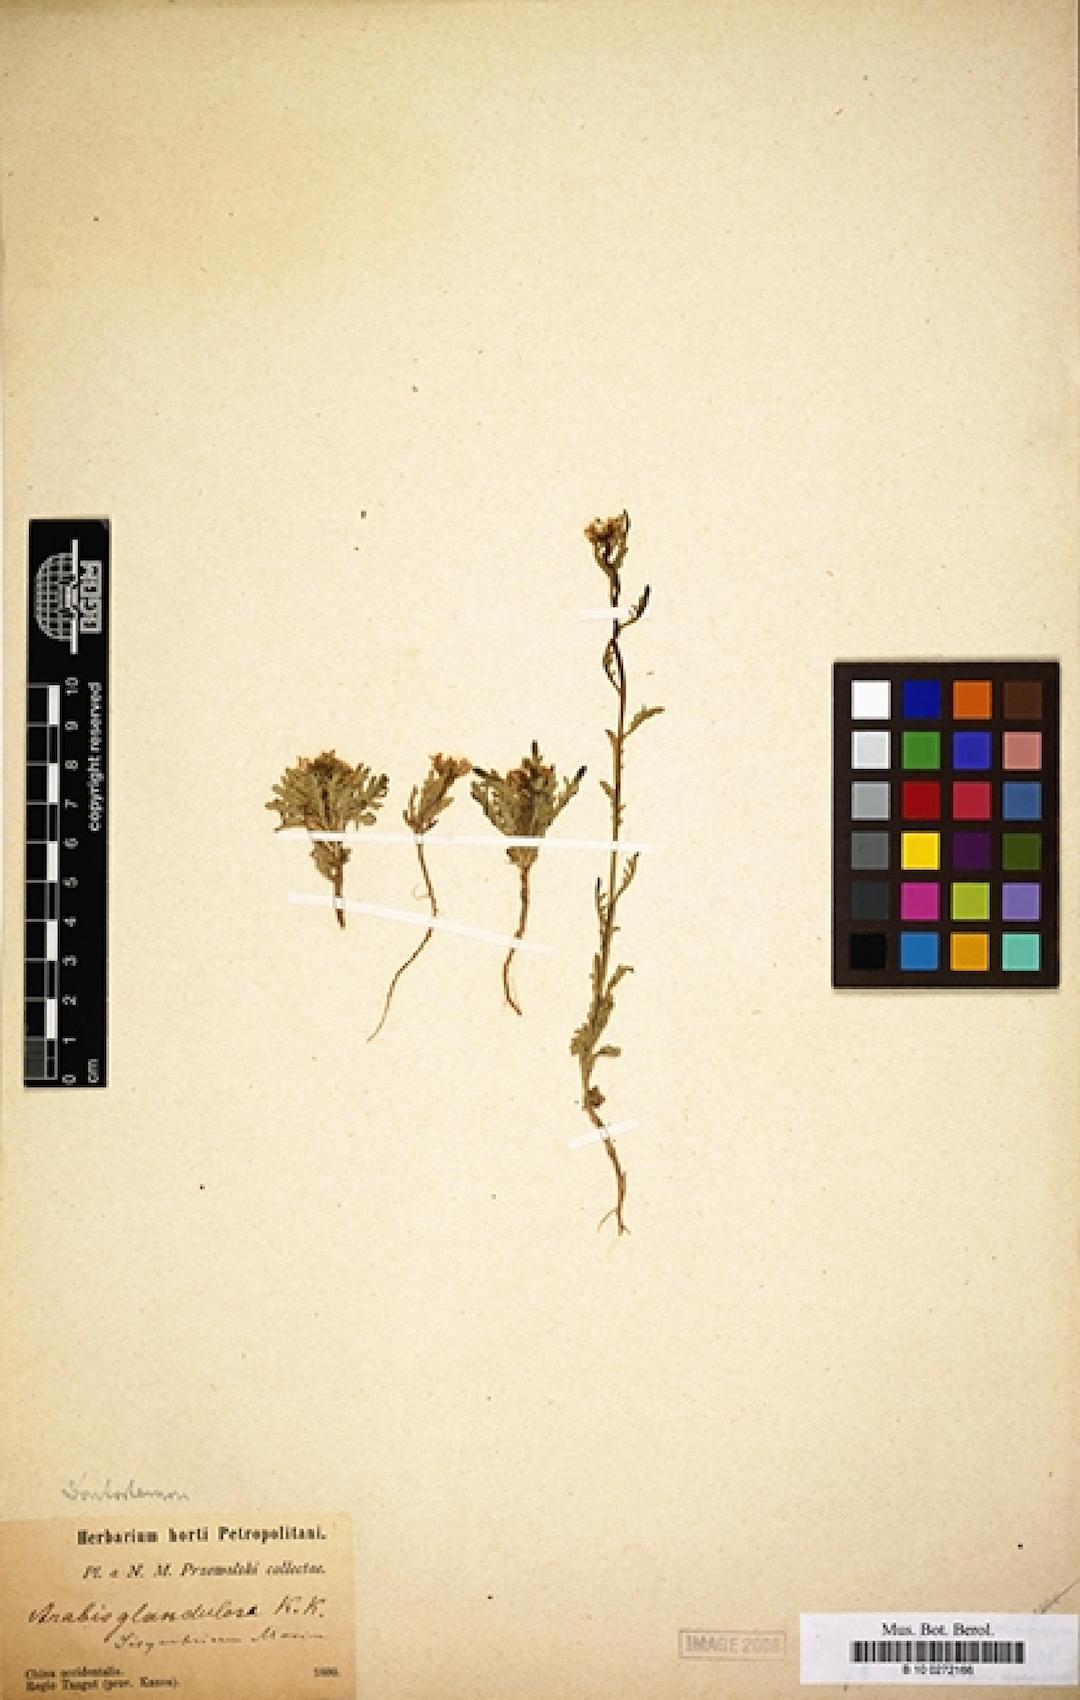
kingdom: Plantae
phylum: Tracheophyta
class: Magnoliopsida
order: Brassicales
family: Brassicaceae
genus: Dontostemon
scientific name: Dontostemon glandulosus
